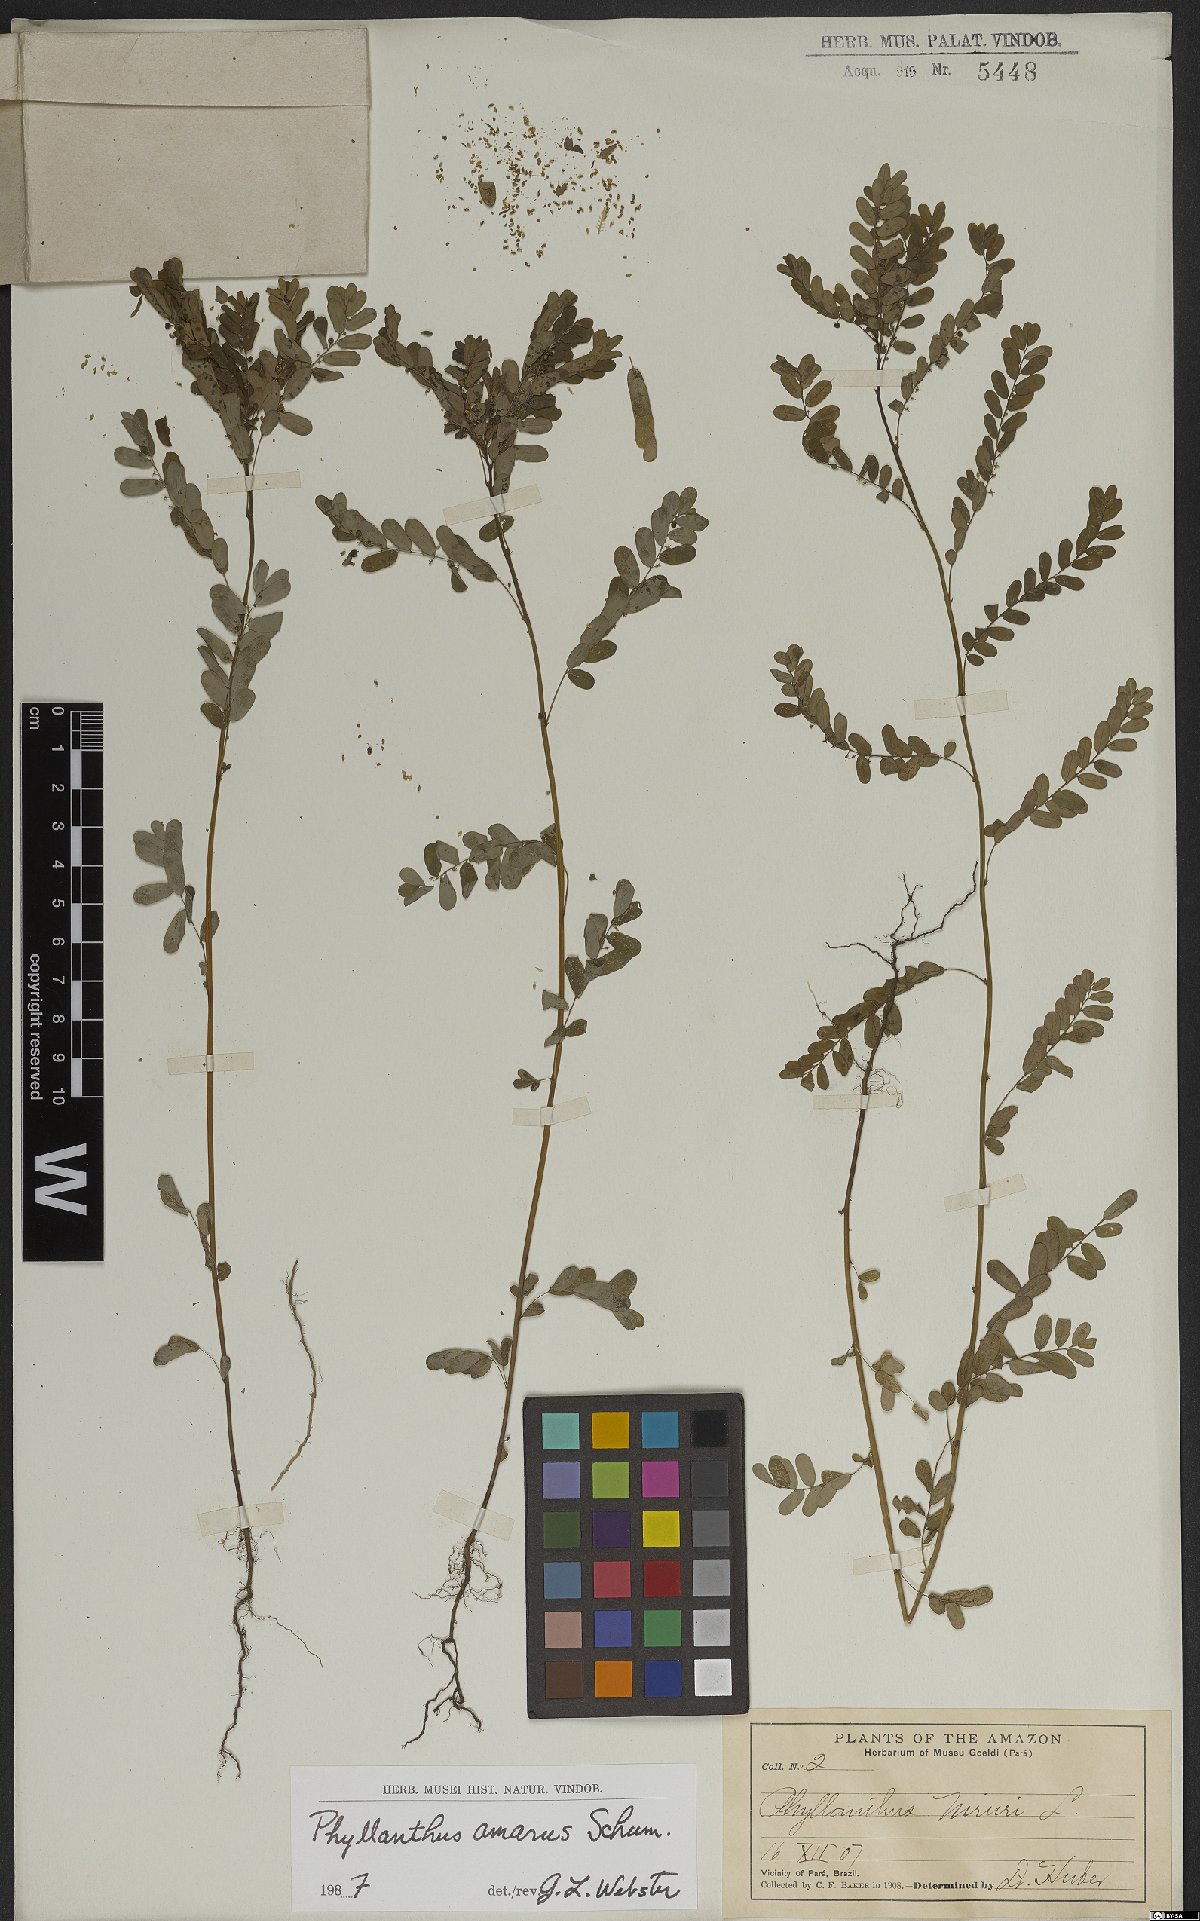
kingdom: Plantae
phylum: Tracheophyta
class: Magnoliopsida
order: Malpighiales
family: Phyllanthaceae
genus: Phyllanthus
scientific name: Phyllanthus amarus
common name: Carry me seed
